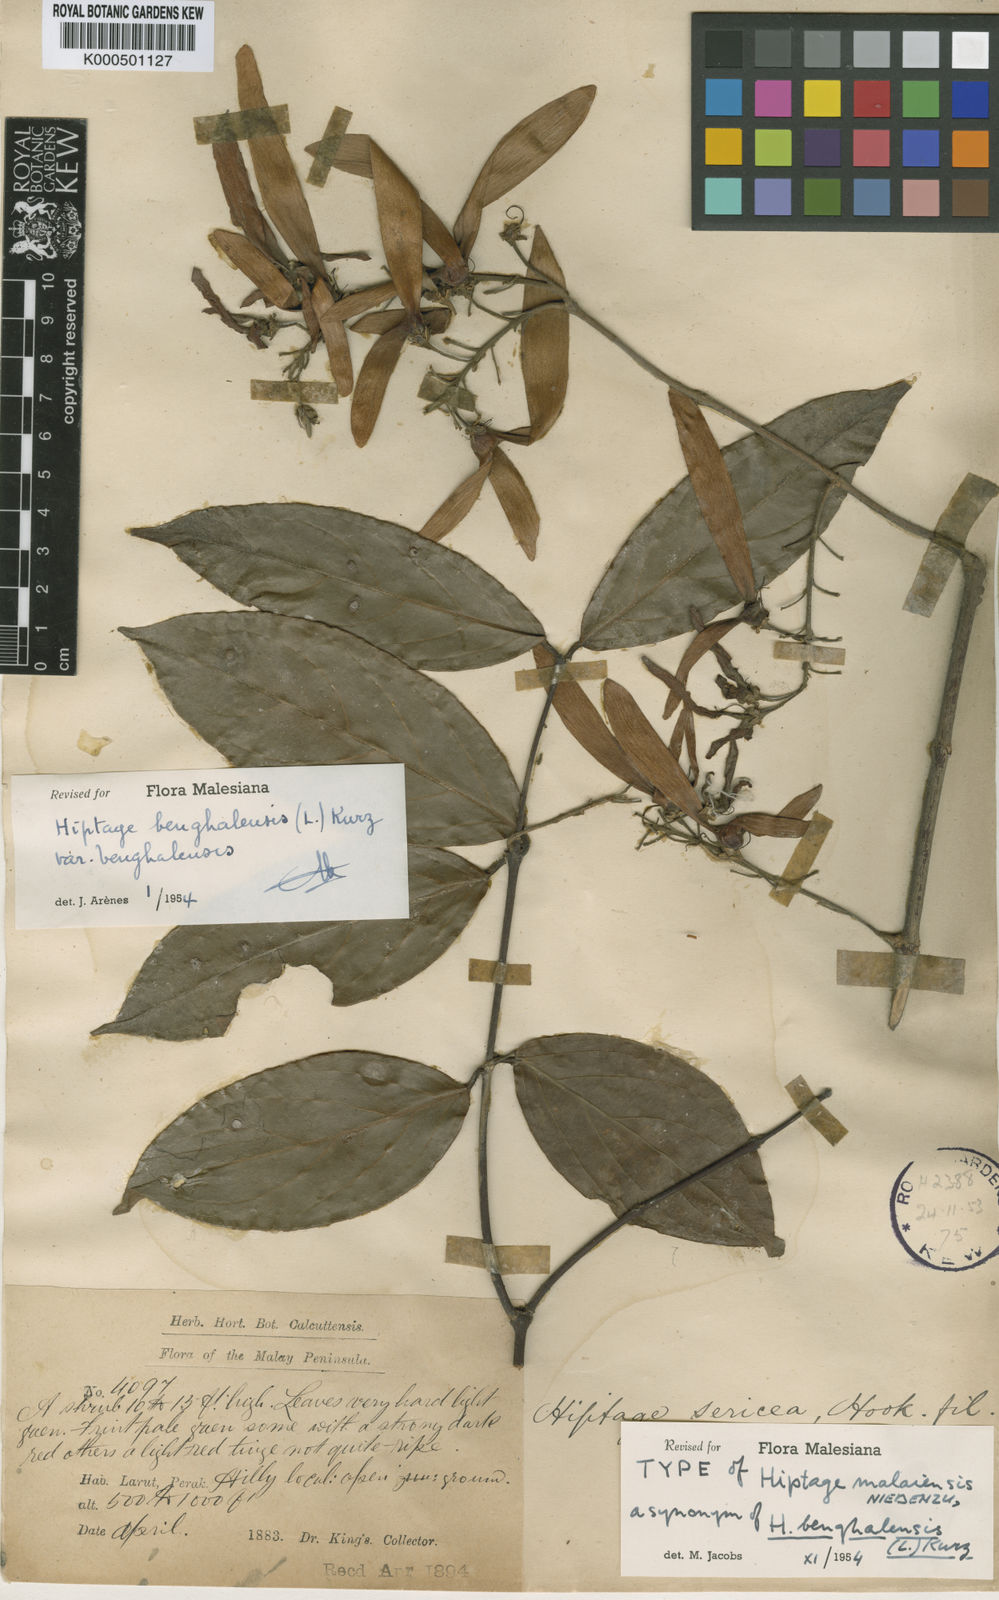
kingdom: Plantae
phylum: Tracheophyta
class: Magnoliopsida
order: Malpighiales
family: Malpighiaceae
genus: Hiptage
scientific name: Hiptage
